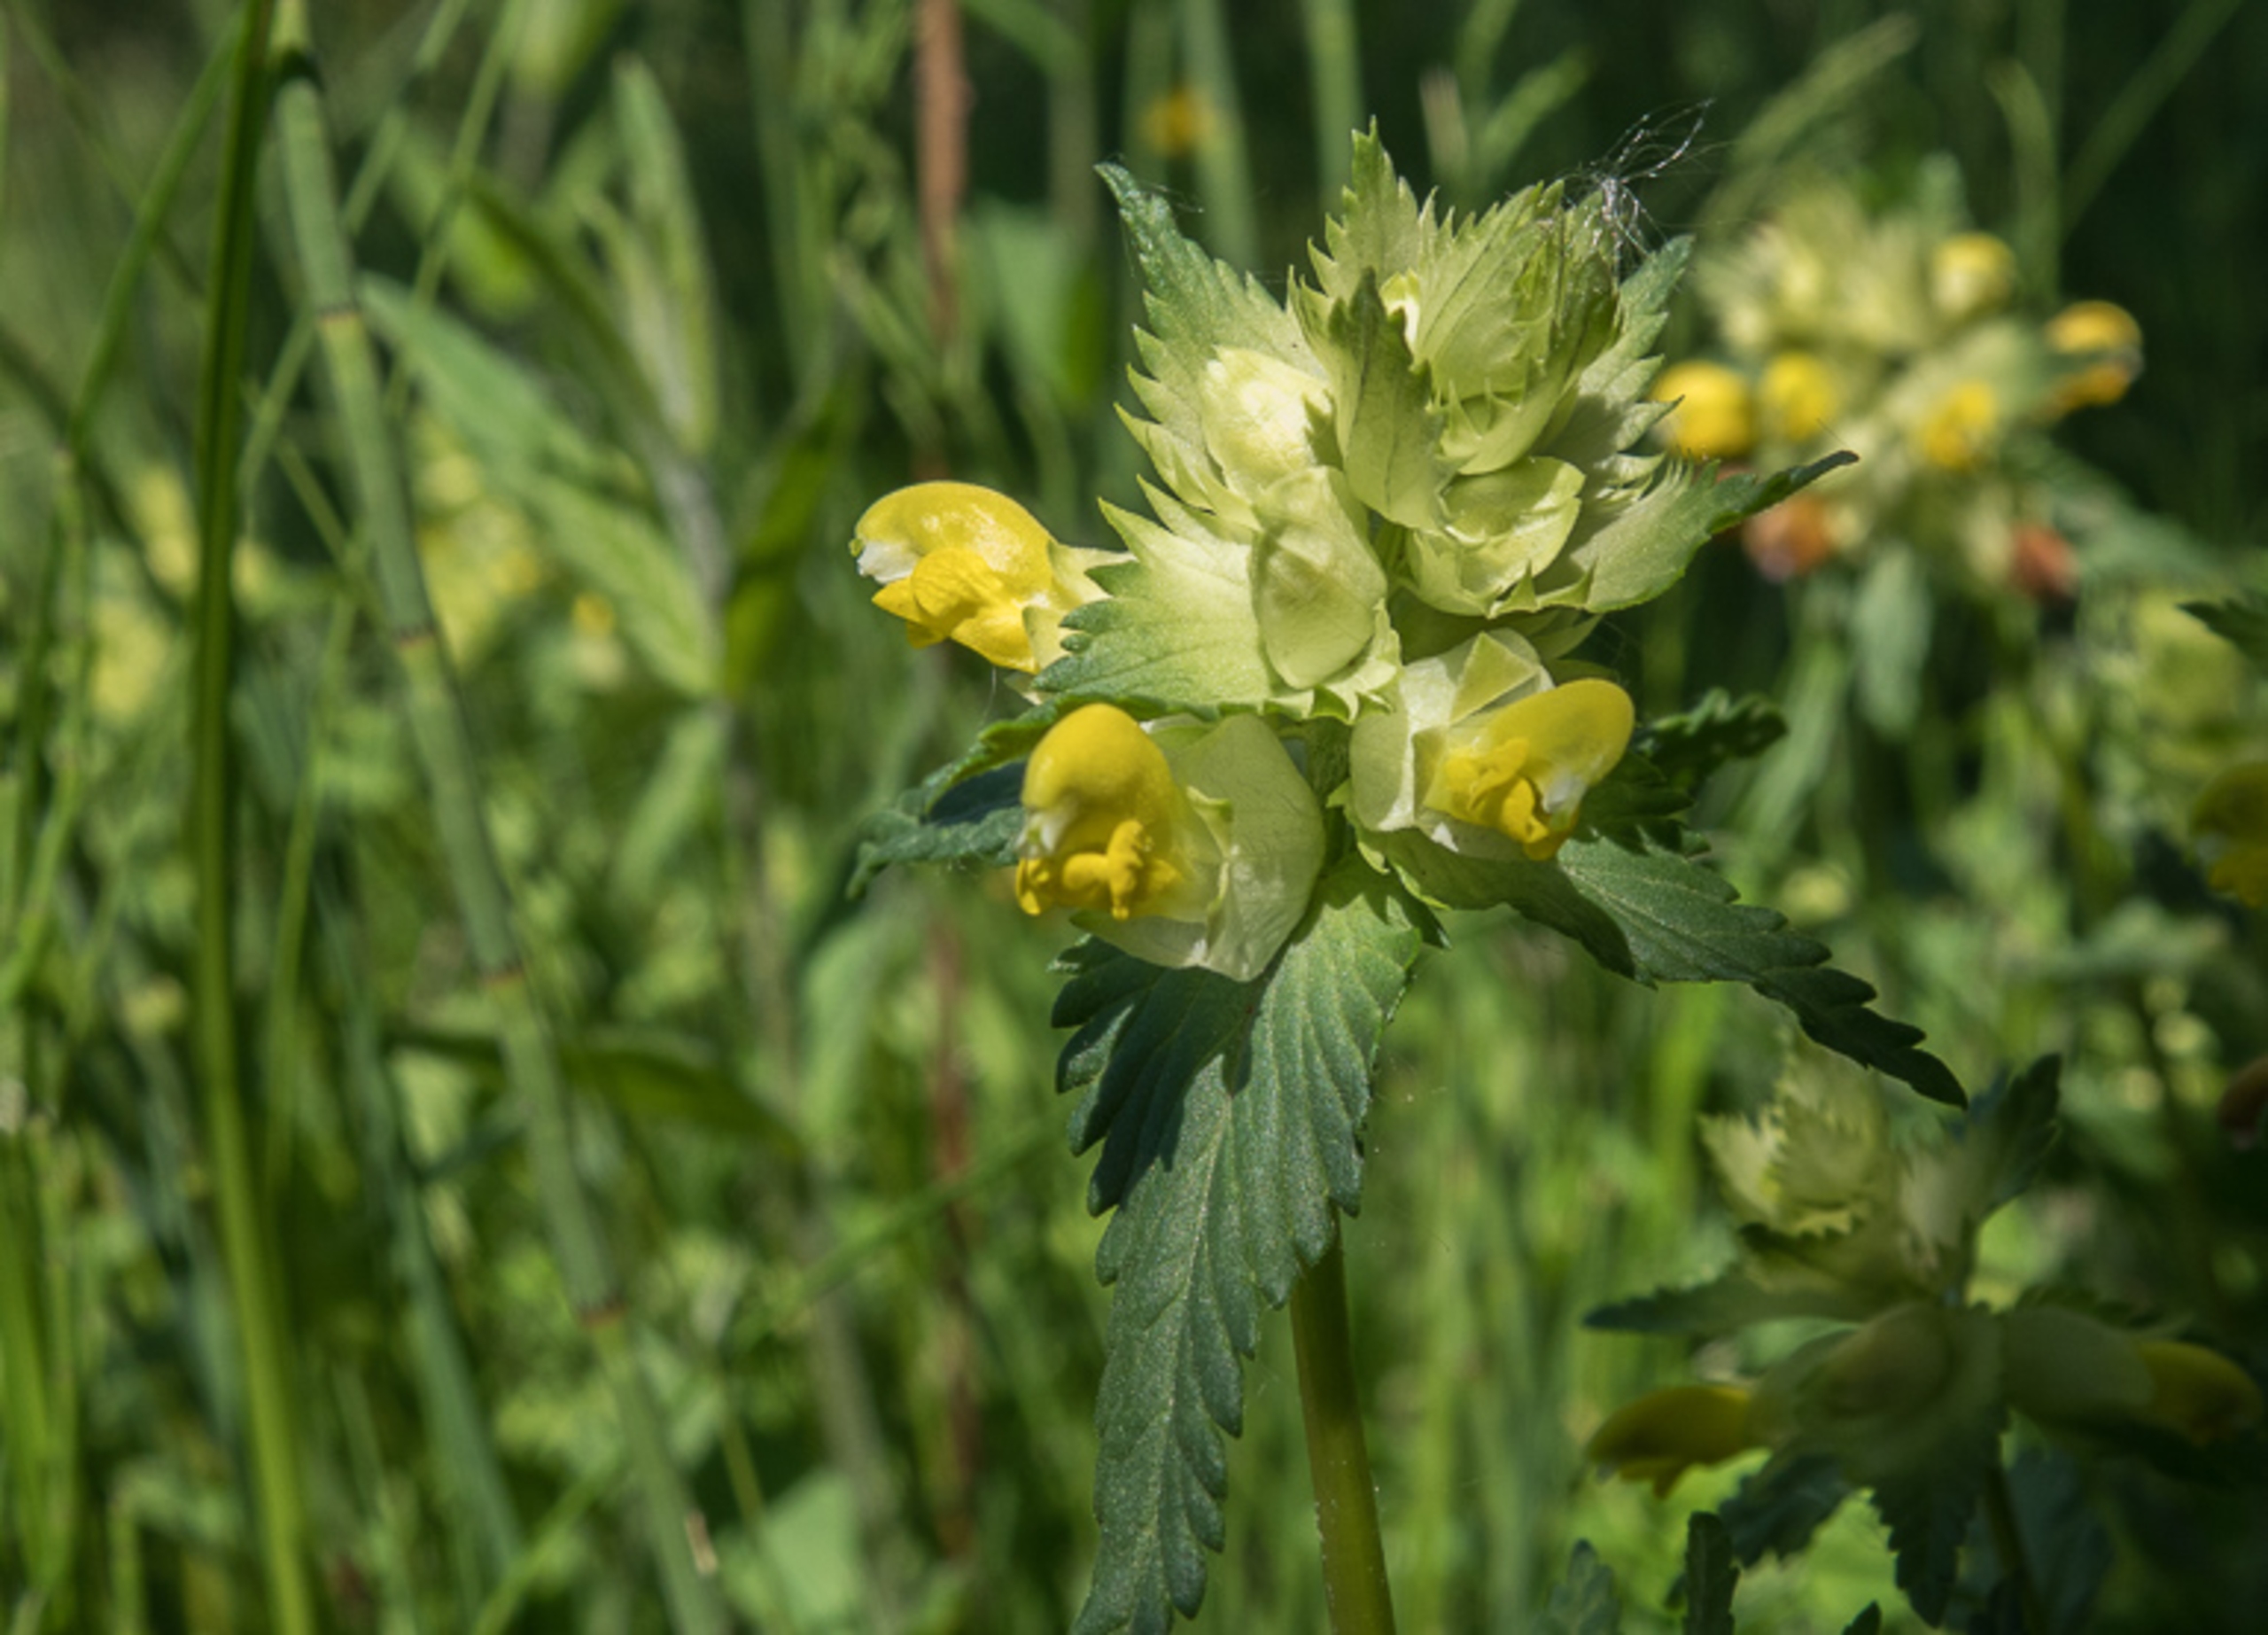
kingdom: Plantae
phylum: Tracheophyta
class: Magnoliopsida
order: Lamiales
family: Orobanchaceae
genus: Rhinanthus
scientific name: Rhinanthus
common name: Stor skjaller
